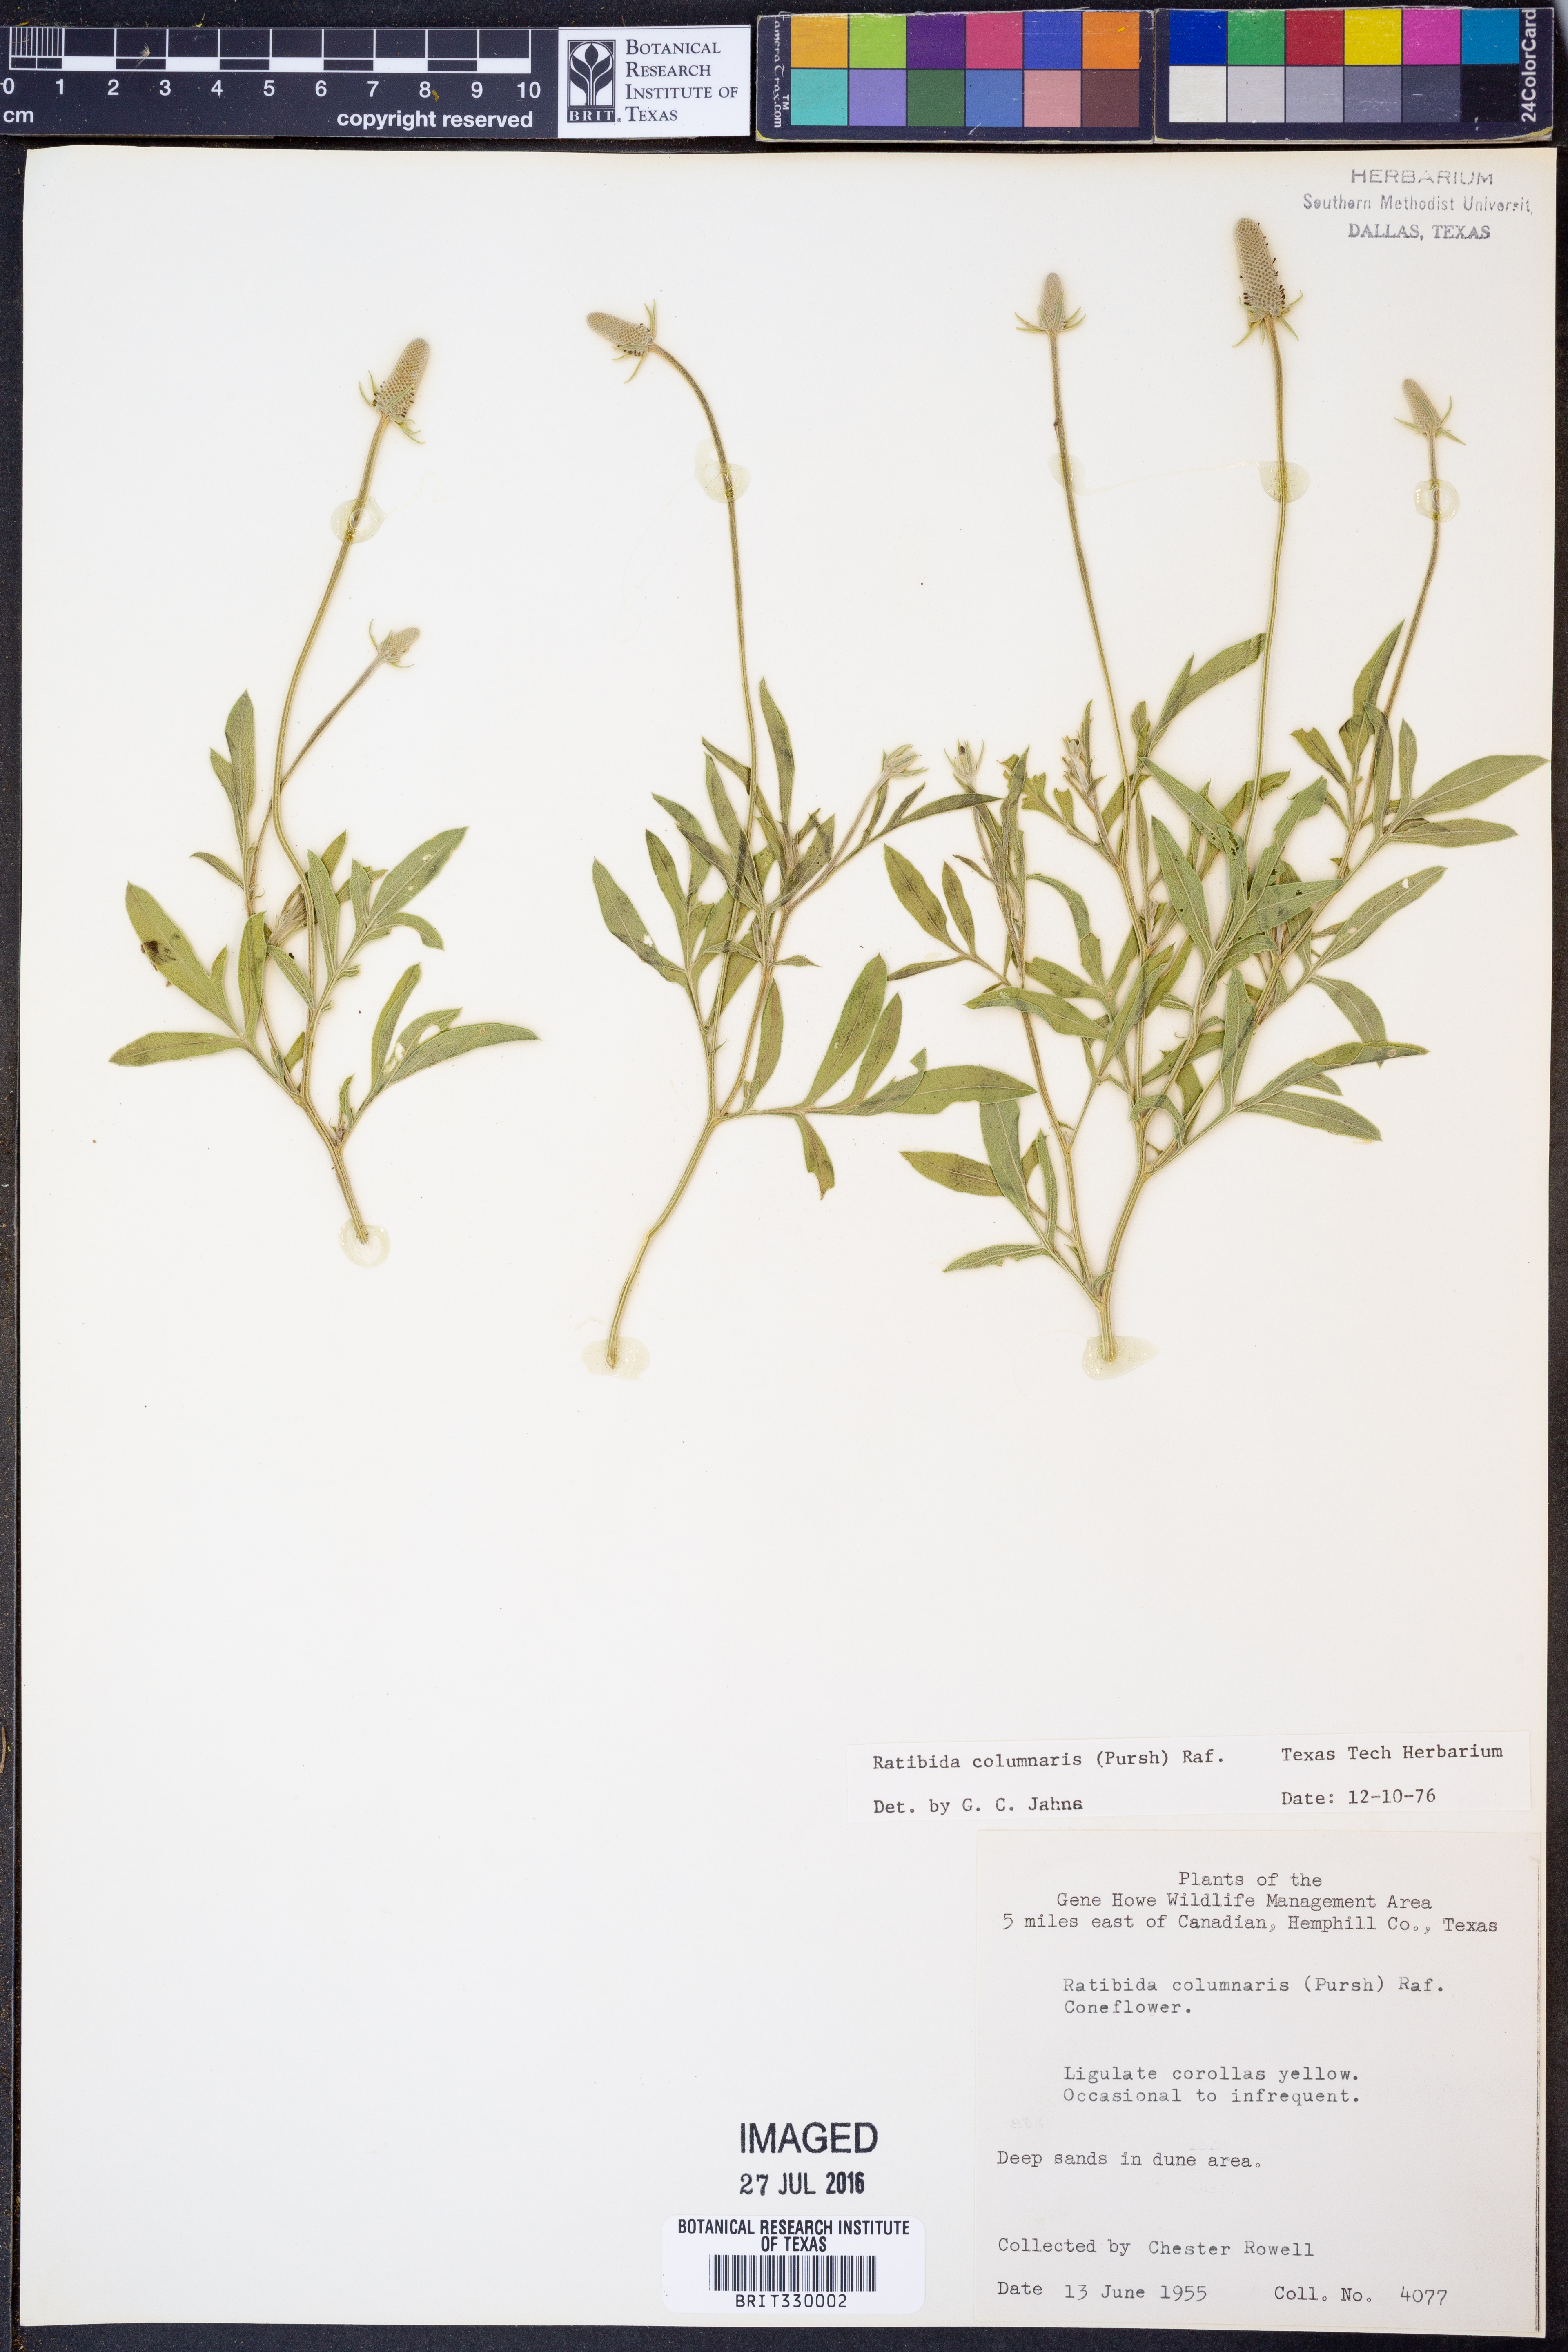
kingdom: Plantae
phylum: Tracheophyta
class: Magnoliopsida
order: Asterales
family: Asteraceae
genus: Ratibida
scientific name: Ratibida columnifera
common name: Prairie coneflower
